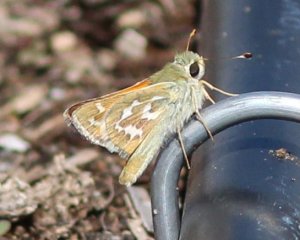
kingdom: Animalia
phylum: Arthropoda
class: Insecta
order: Lepidoptera
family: Hesperiidae
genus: Hesperia
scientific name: Hesperia comma
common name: Western Branded Skipper
